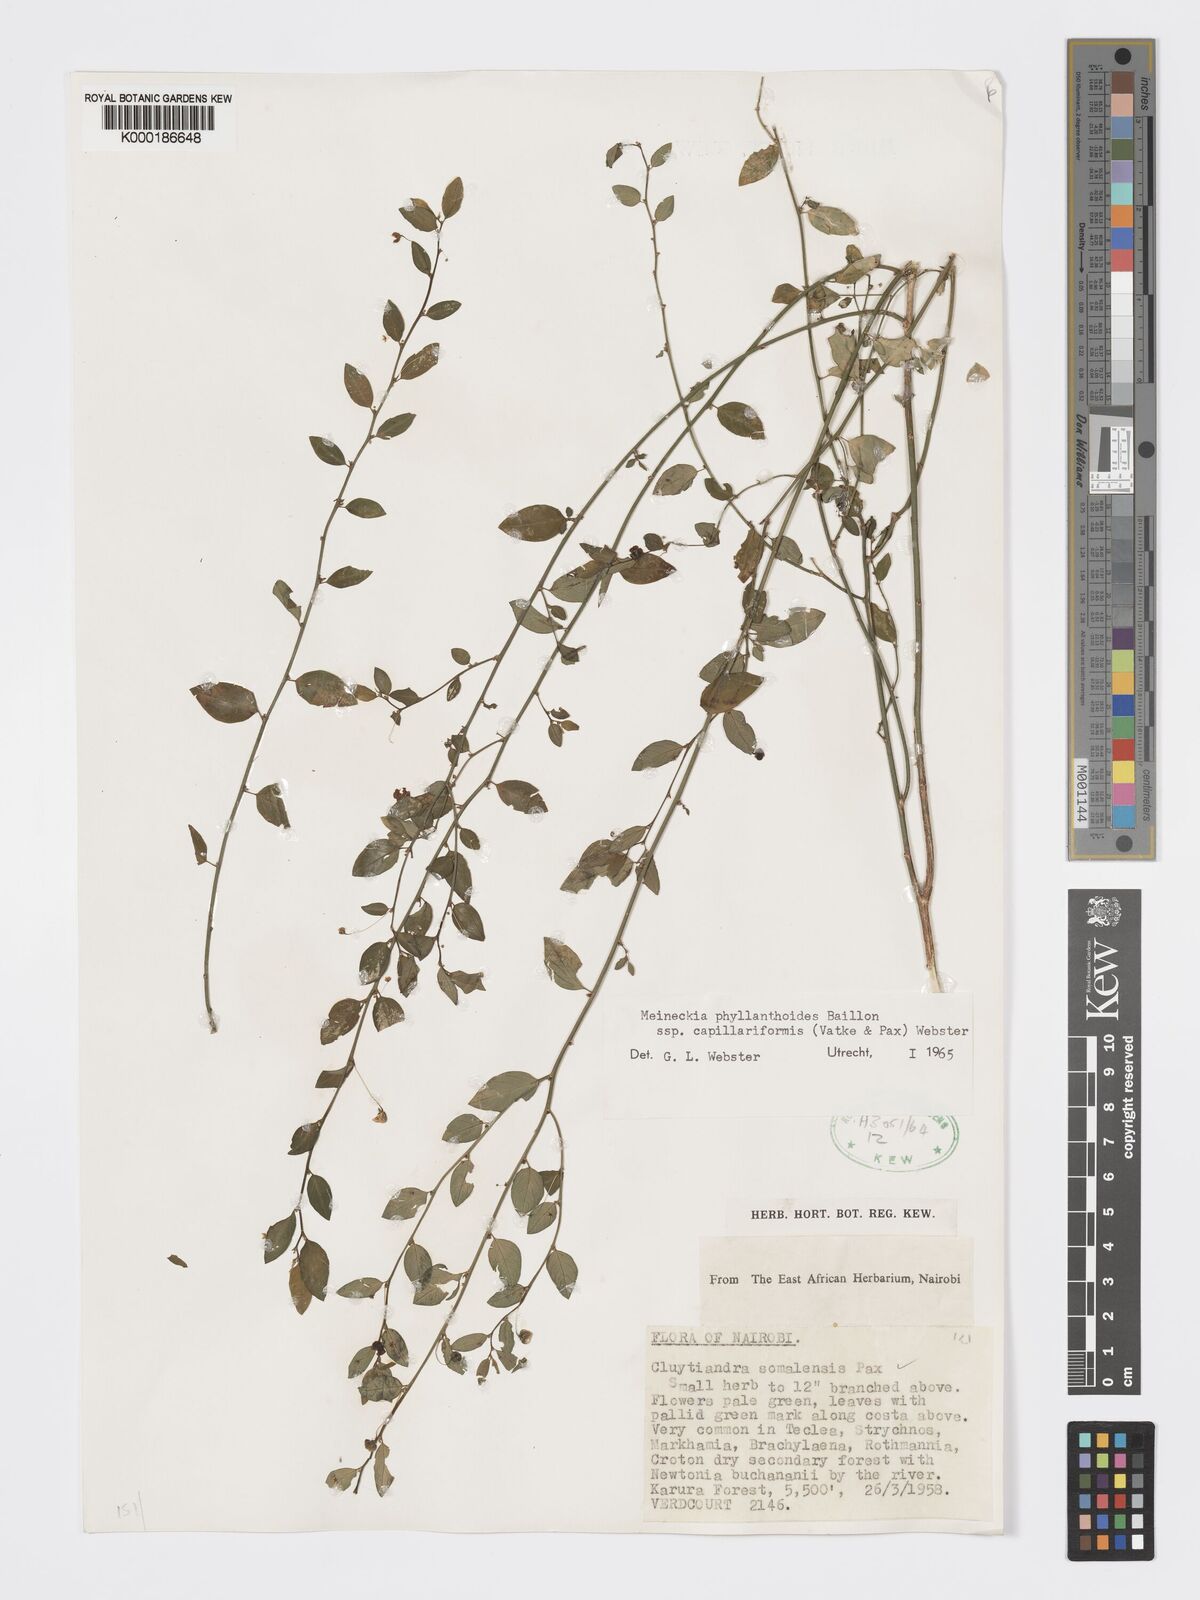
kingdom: Plantae
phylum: Tracheophyta
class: Magnoliopsida
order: Malpighiales
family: Phyllanthaceae
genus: Meineckia
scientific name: Meineckia phyllanthoides
